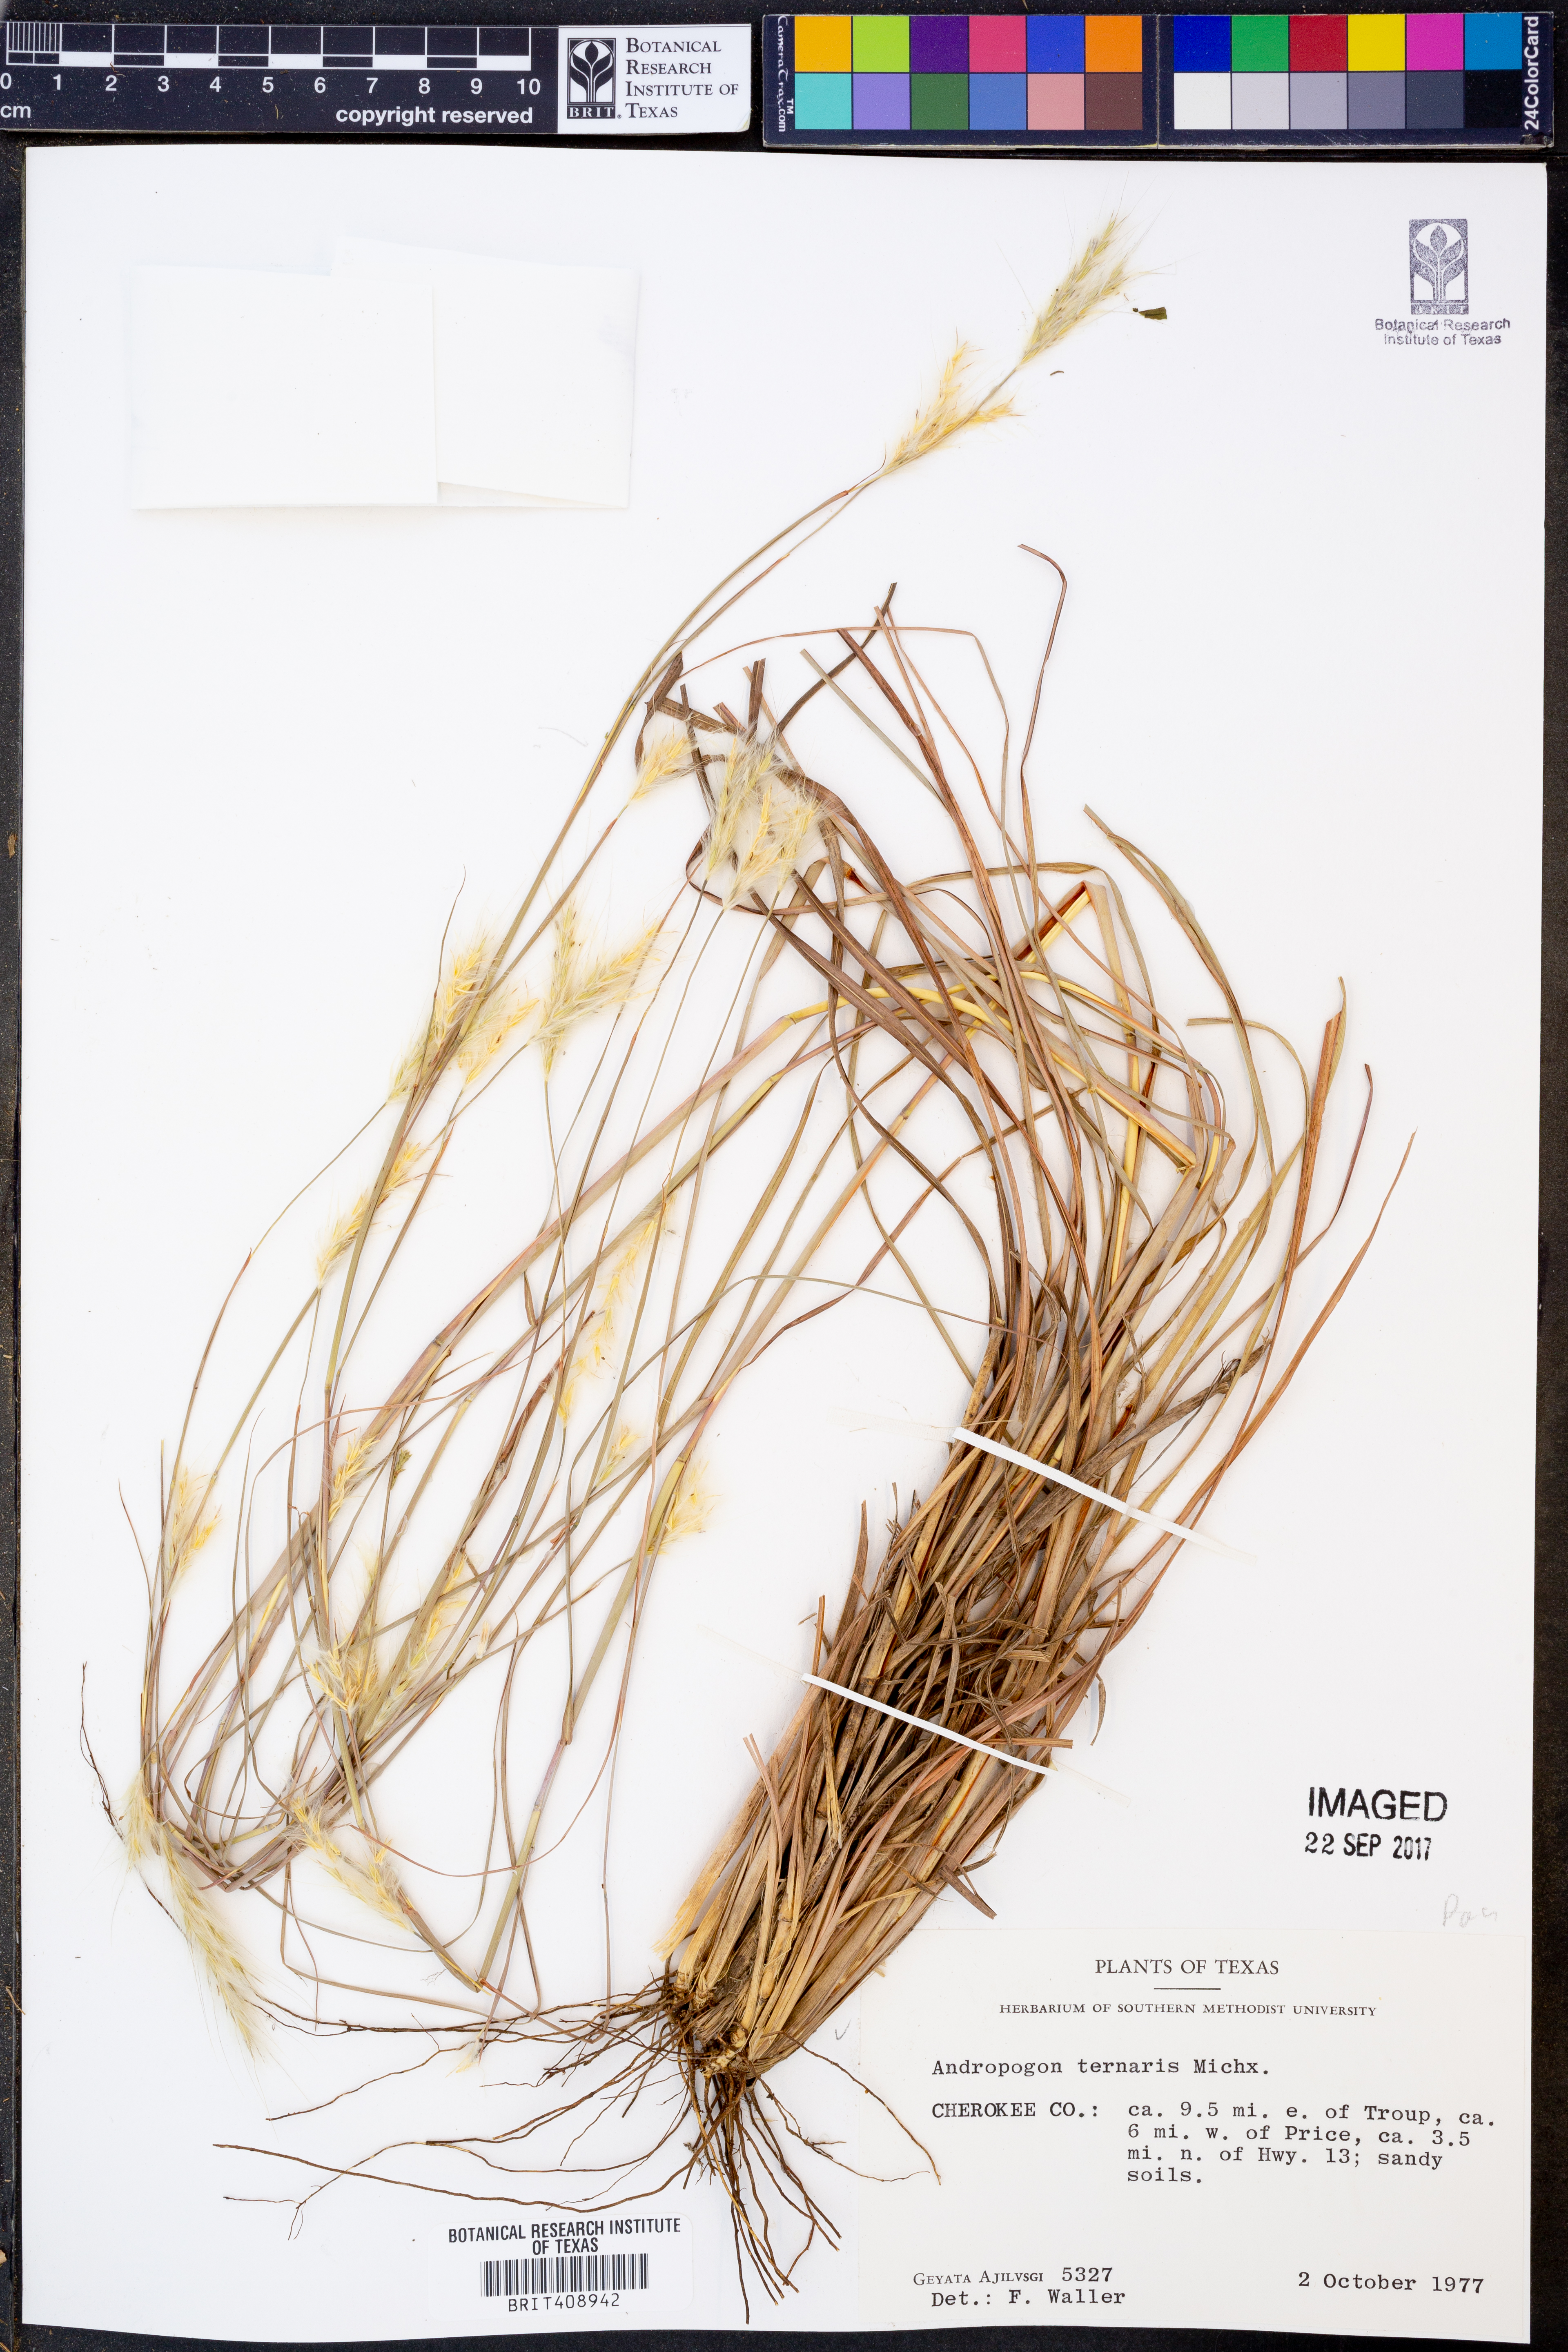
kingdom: Plantae
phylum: Tracheophyta
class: Liliopsida
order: Poales
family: Poaceae
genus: Andropogon
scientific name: Andropogon ternarius
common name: Split bluestem
